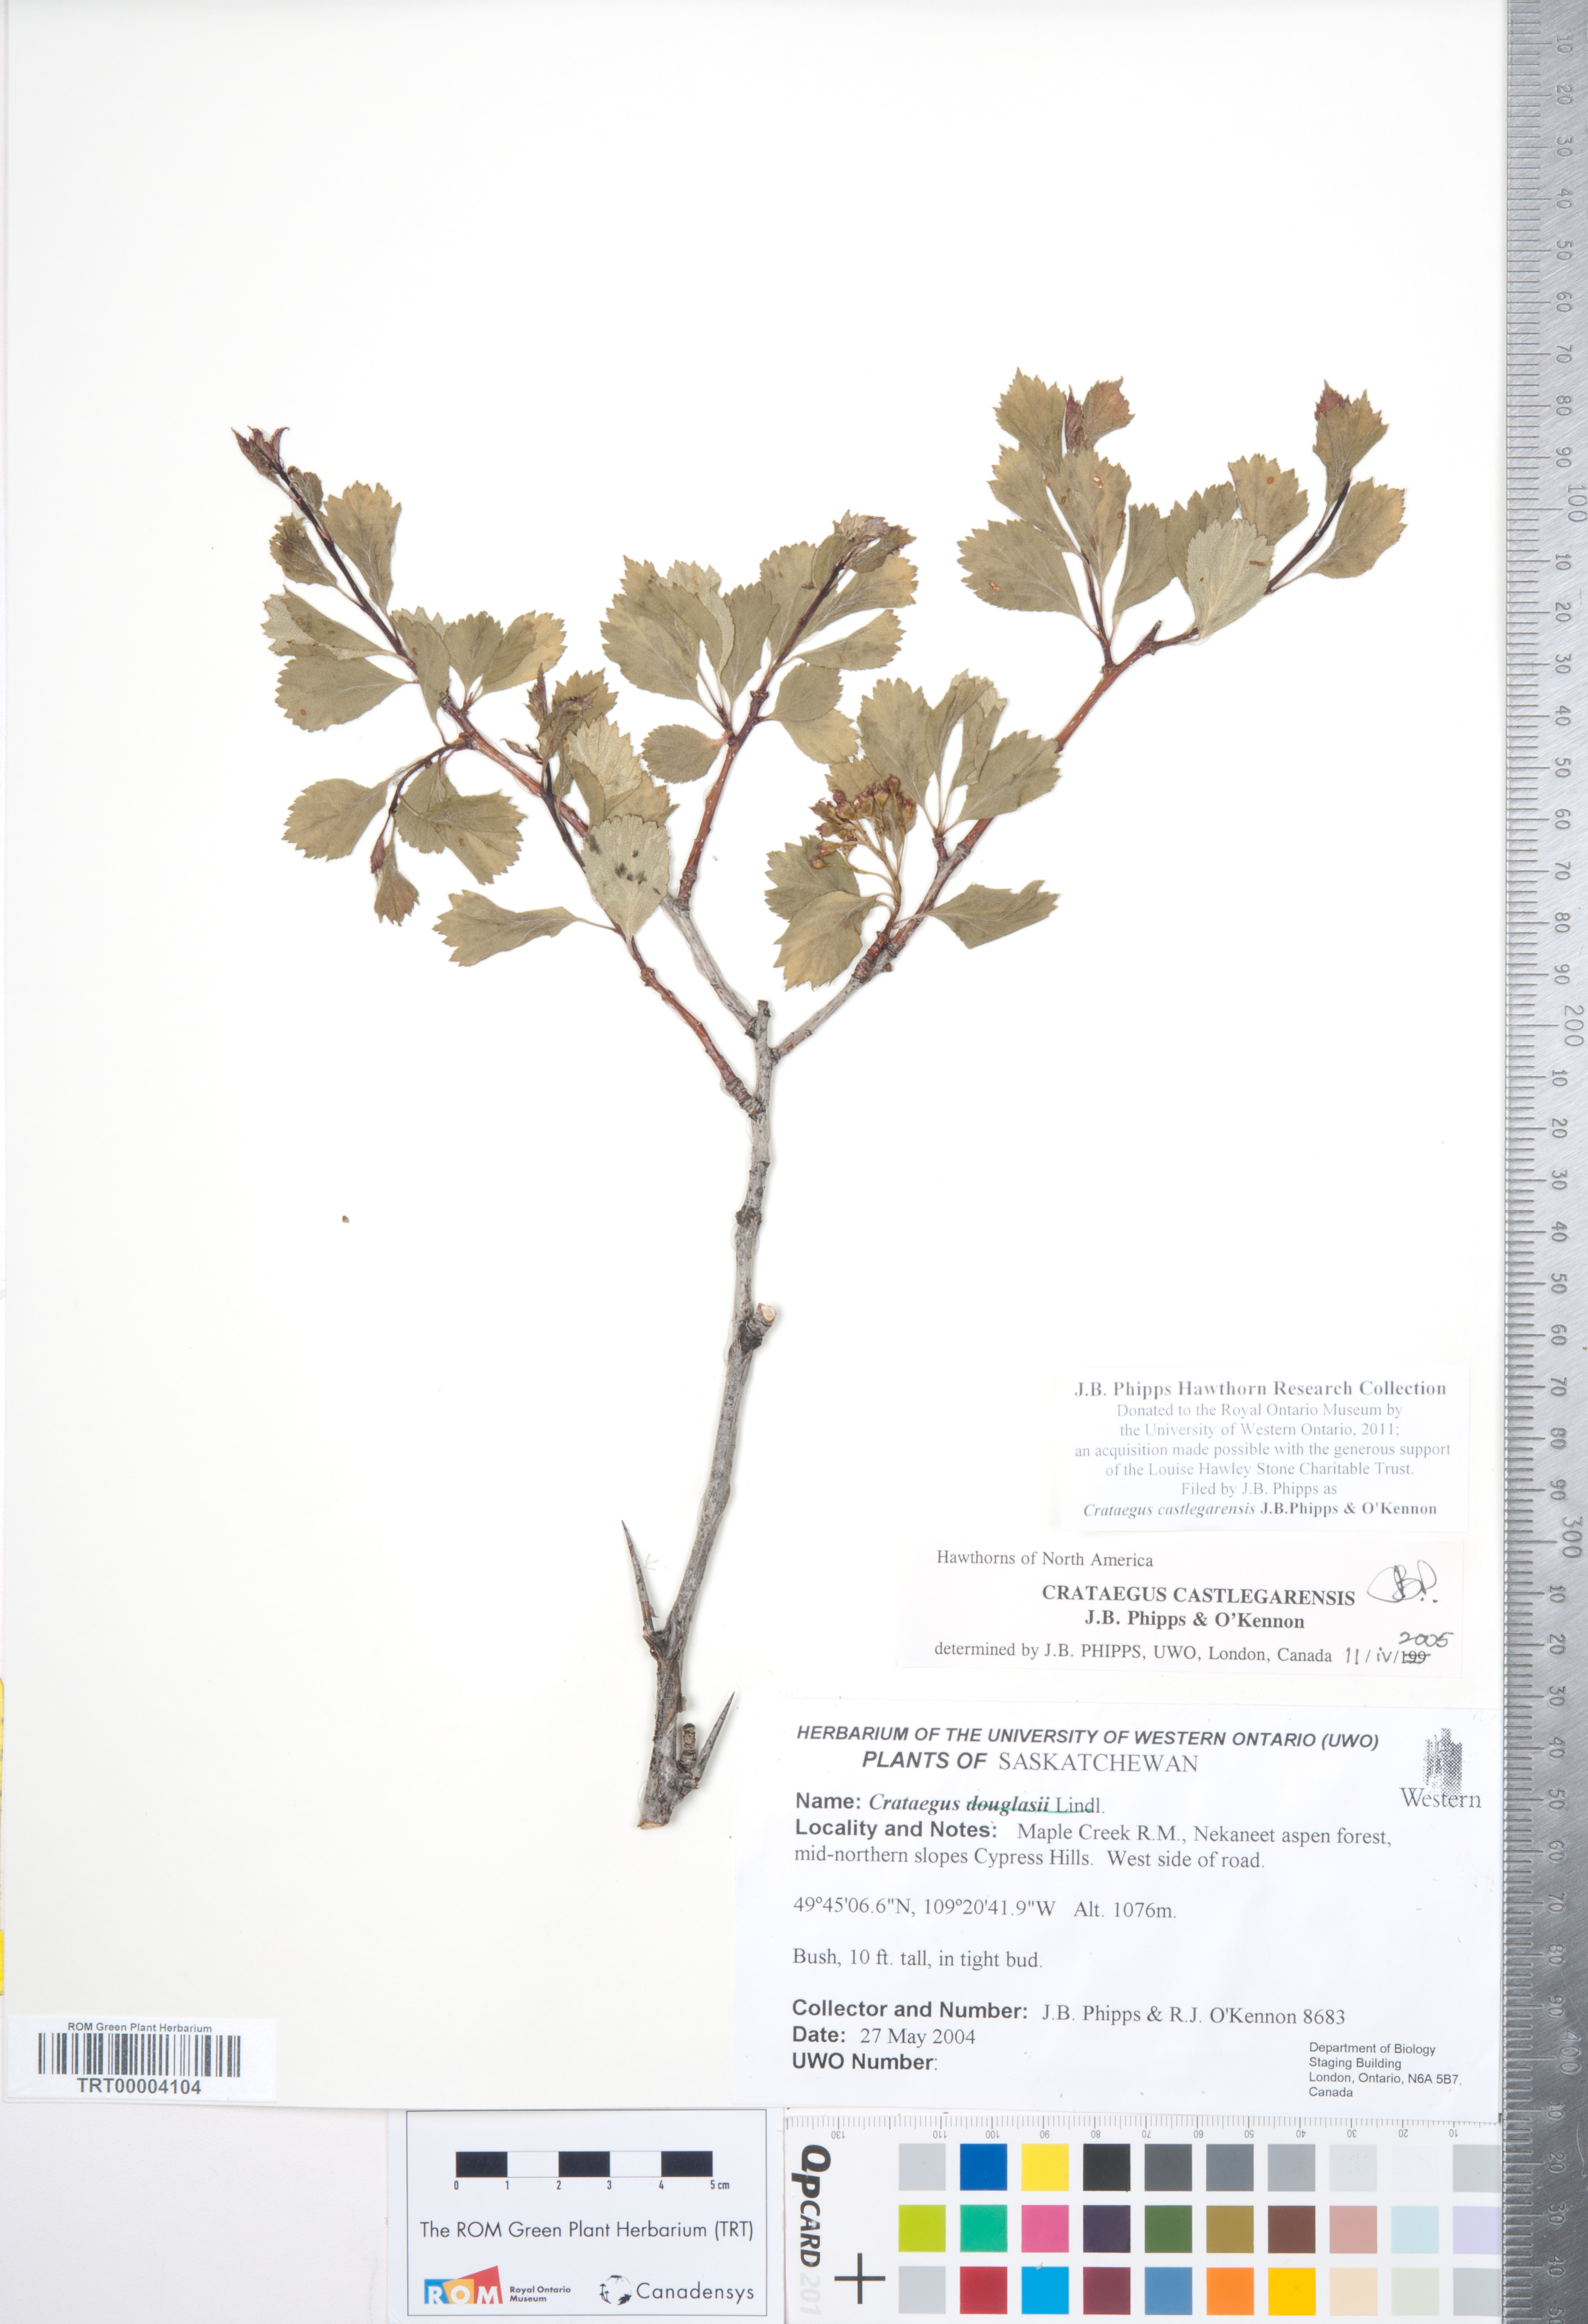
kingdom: Plantae
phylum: Tracheophyta
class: Magnoliopsida
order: Rosales
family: Rosaceae
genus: Crataegus
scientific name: Crataegus castlegarensis
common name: Castlegar hawthorn
